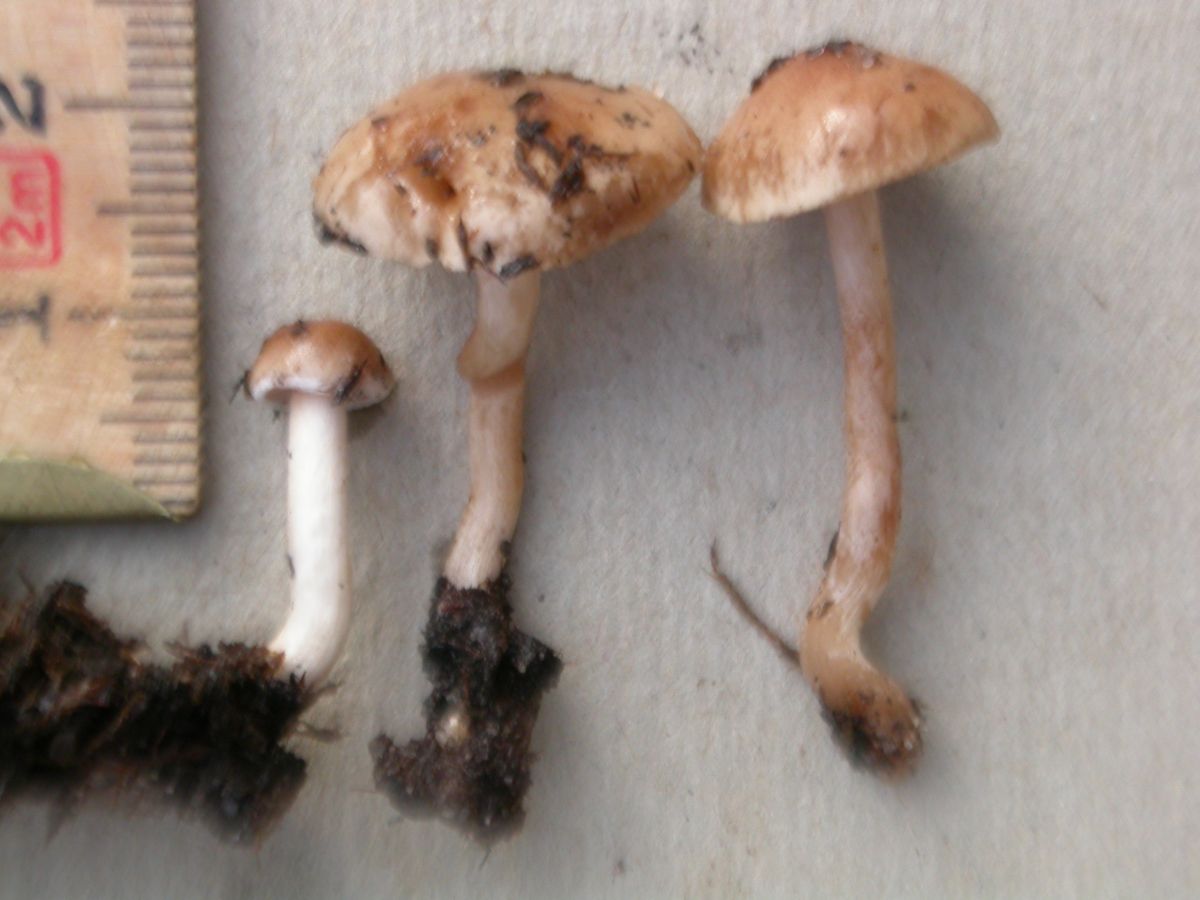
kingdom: Fungi
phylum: Basidiomycota
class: Agaricomycetes
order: Agaricales
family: Hymenogastraceae
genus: Hebeloma
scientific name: Hebeloma cylindrosporum
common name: fyrre-tåreblad
